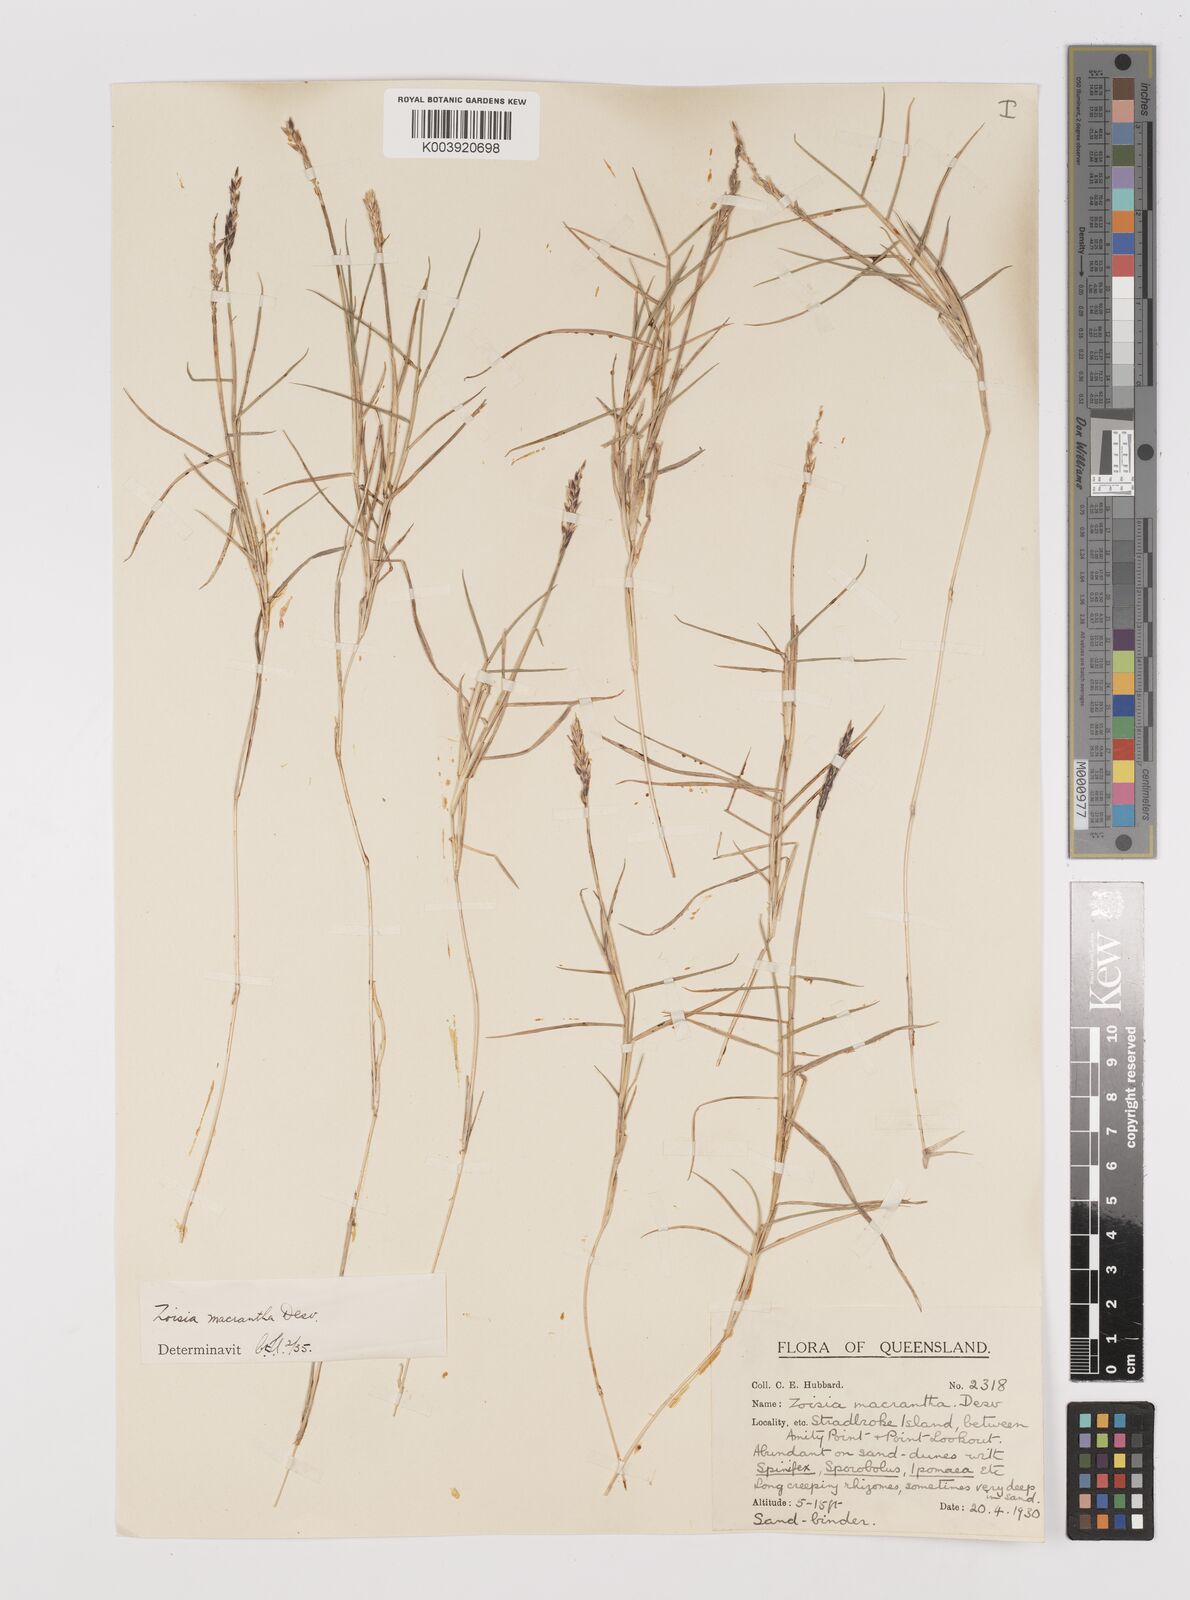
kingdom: Plantae
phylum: Tracheophyta
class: Liliopsida
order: Poales
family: Poaceae
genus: Zoysia
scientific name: Zoysia macrantha
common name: Korean lawn grass
